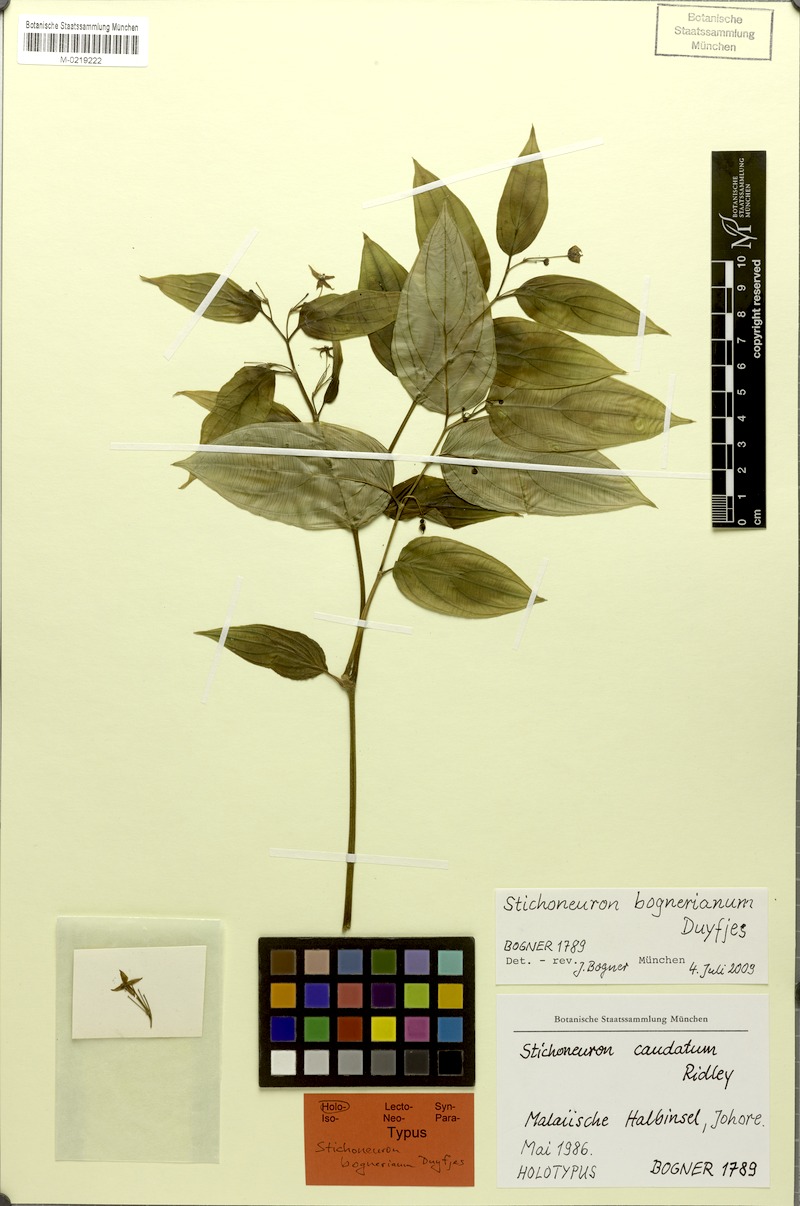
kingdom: Plantae
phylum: Tracheophyta
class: Liliopsida
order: Pandanales
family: Stemonaceae
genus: Stichoneuron
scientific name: Stichoneuron bognerianum
